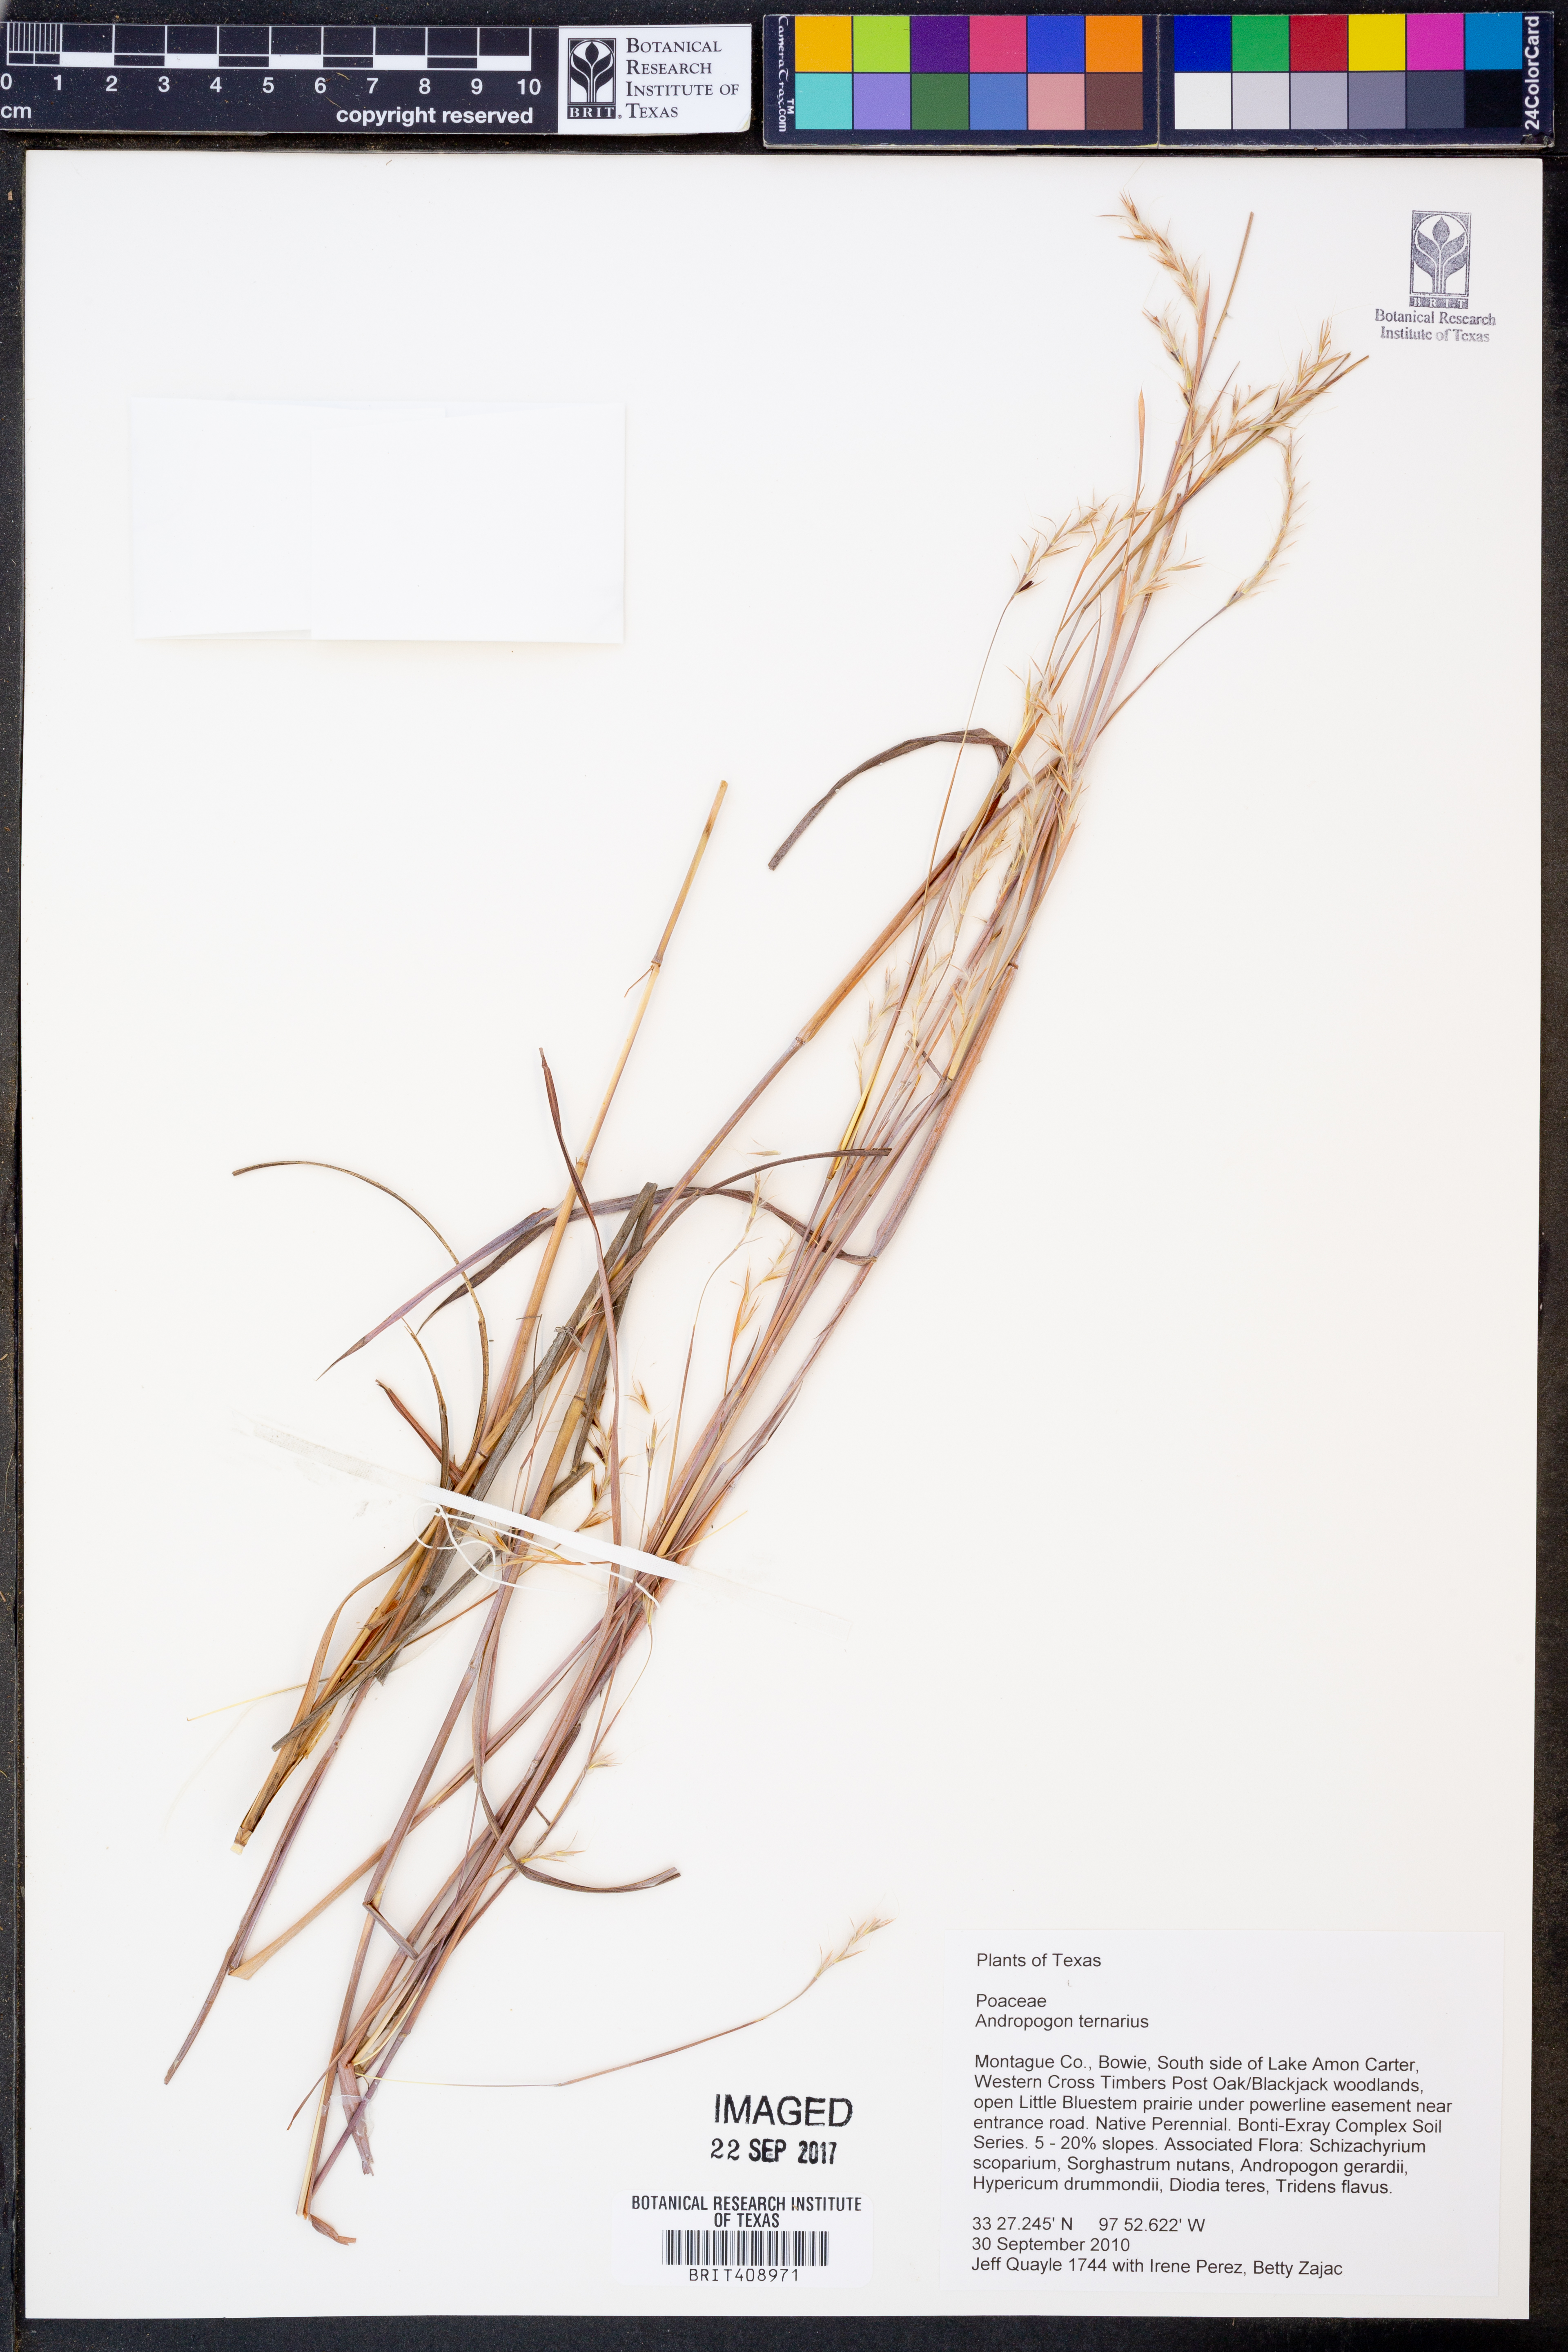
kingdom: Plantae
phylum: Tracheophyta
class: Liliopsida
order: Poales
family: Poaceae
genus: Andropogon
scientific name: Andropogon ternarius
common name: Split bluestem
